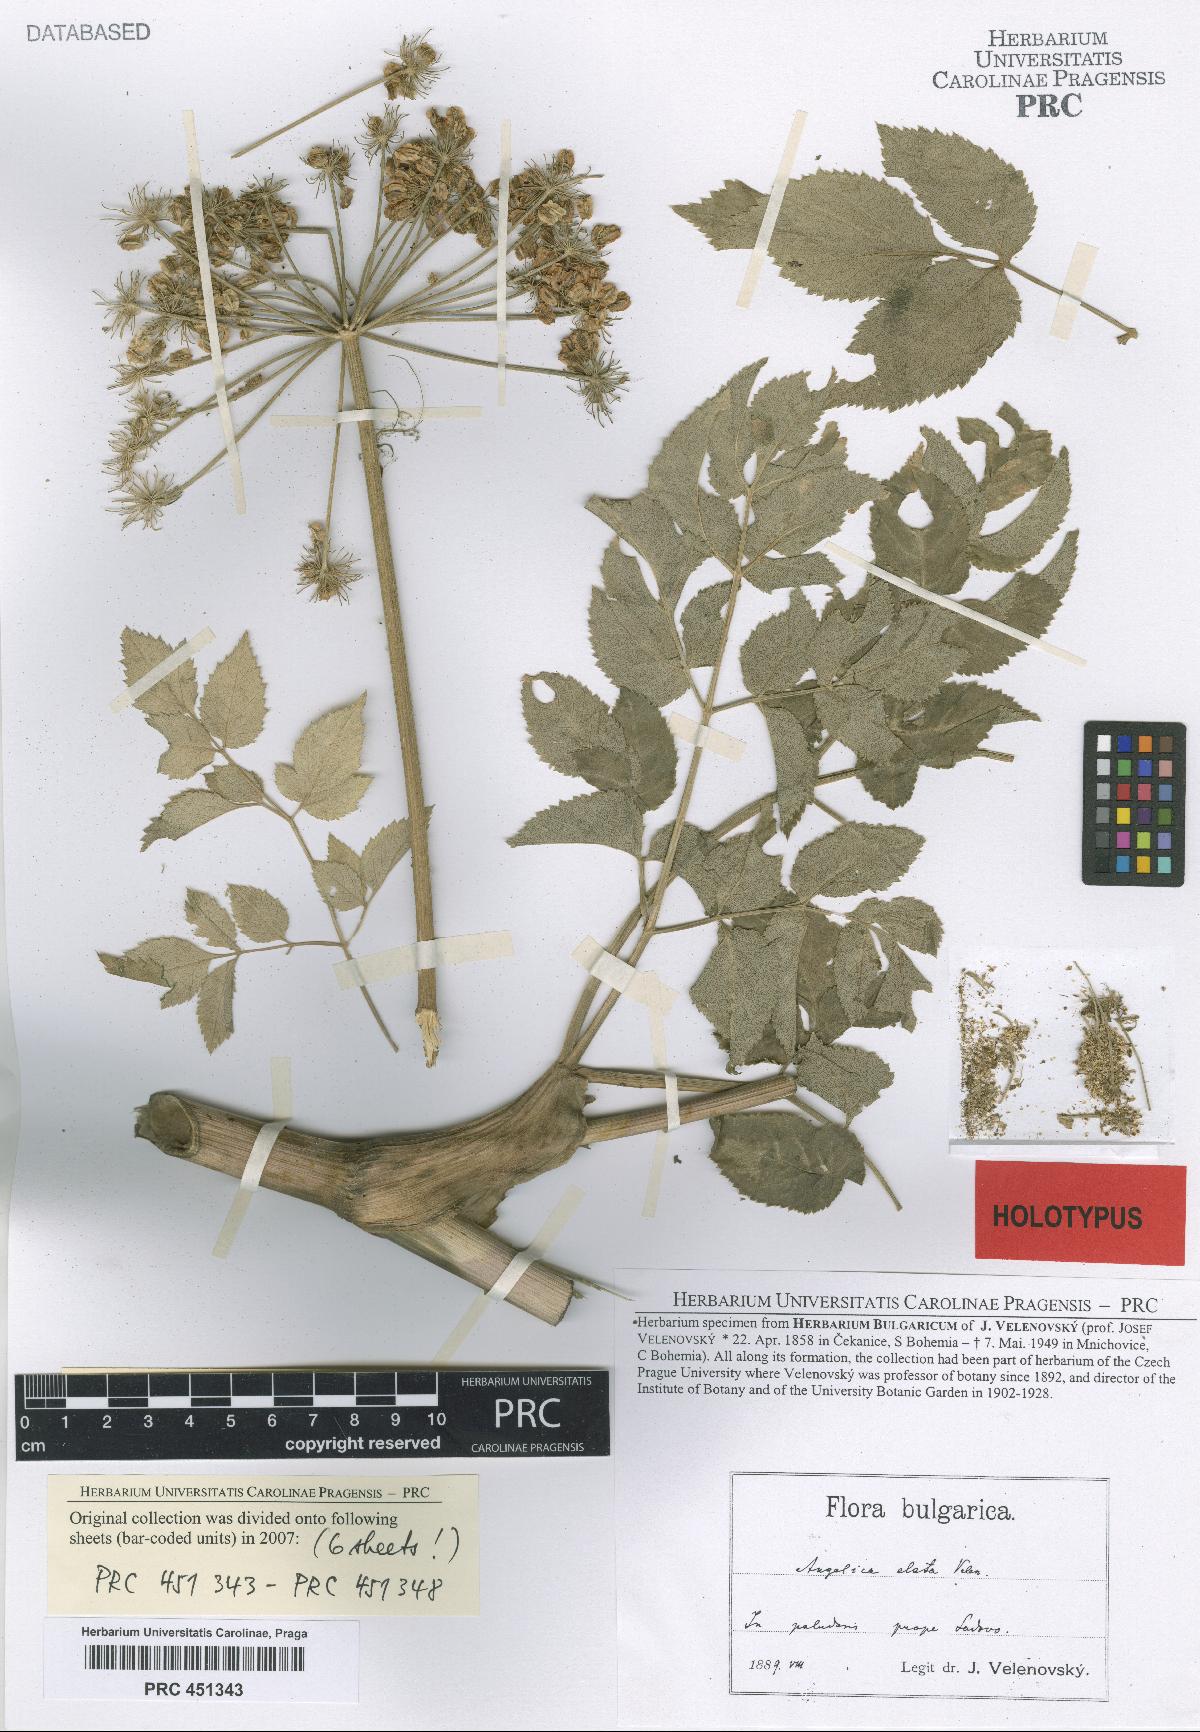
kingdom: Plantae
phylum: Tracheophyta
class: Magnoliopsida
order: Apiales
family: Apiaceae
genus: Angelica
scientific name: Angelica sylvestris
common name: Wild angelica
